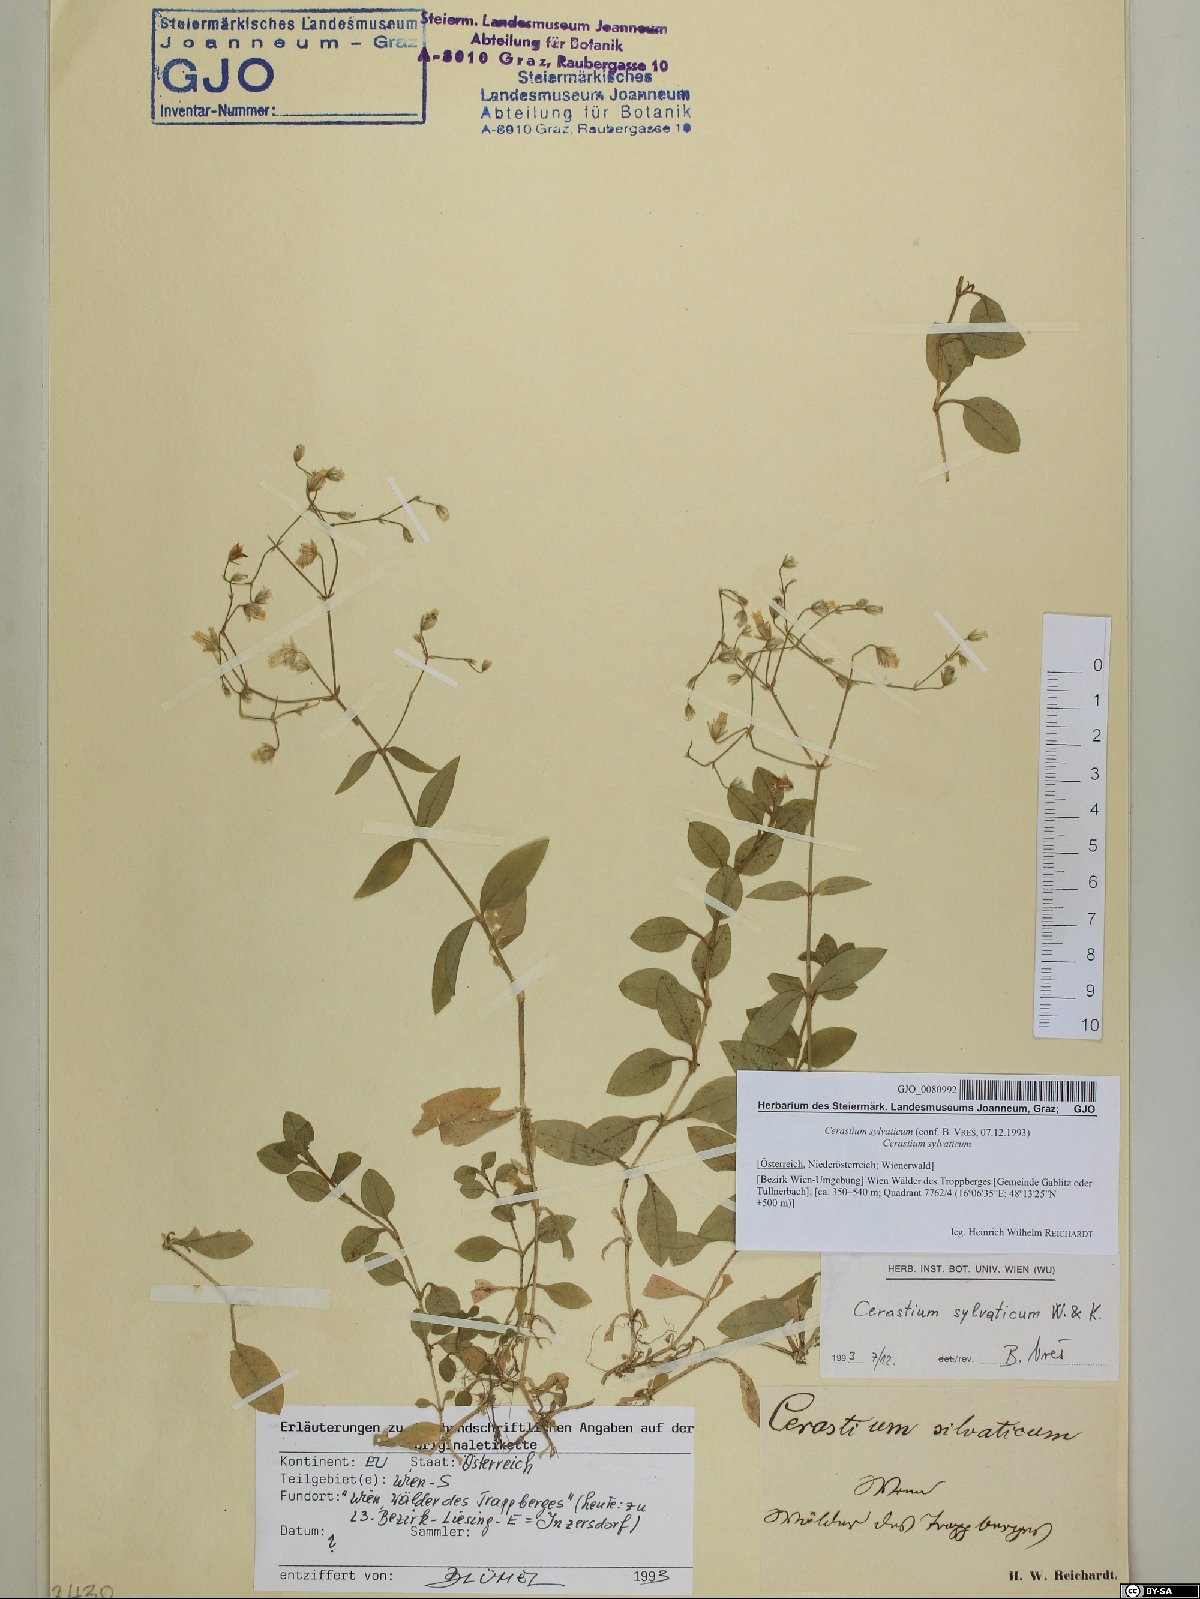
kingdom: Plantae
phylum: Tracheophyta
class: Magnoliopsida
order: Caryophyllales
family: Caryophyllaceae
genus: Cerastium
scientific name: Cerastium sylvaticum
